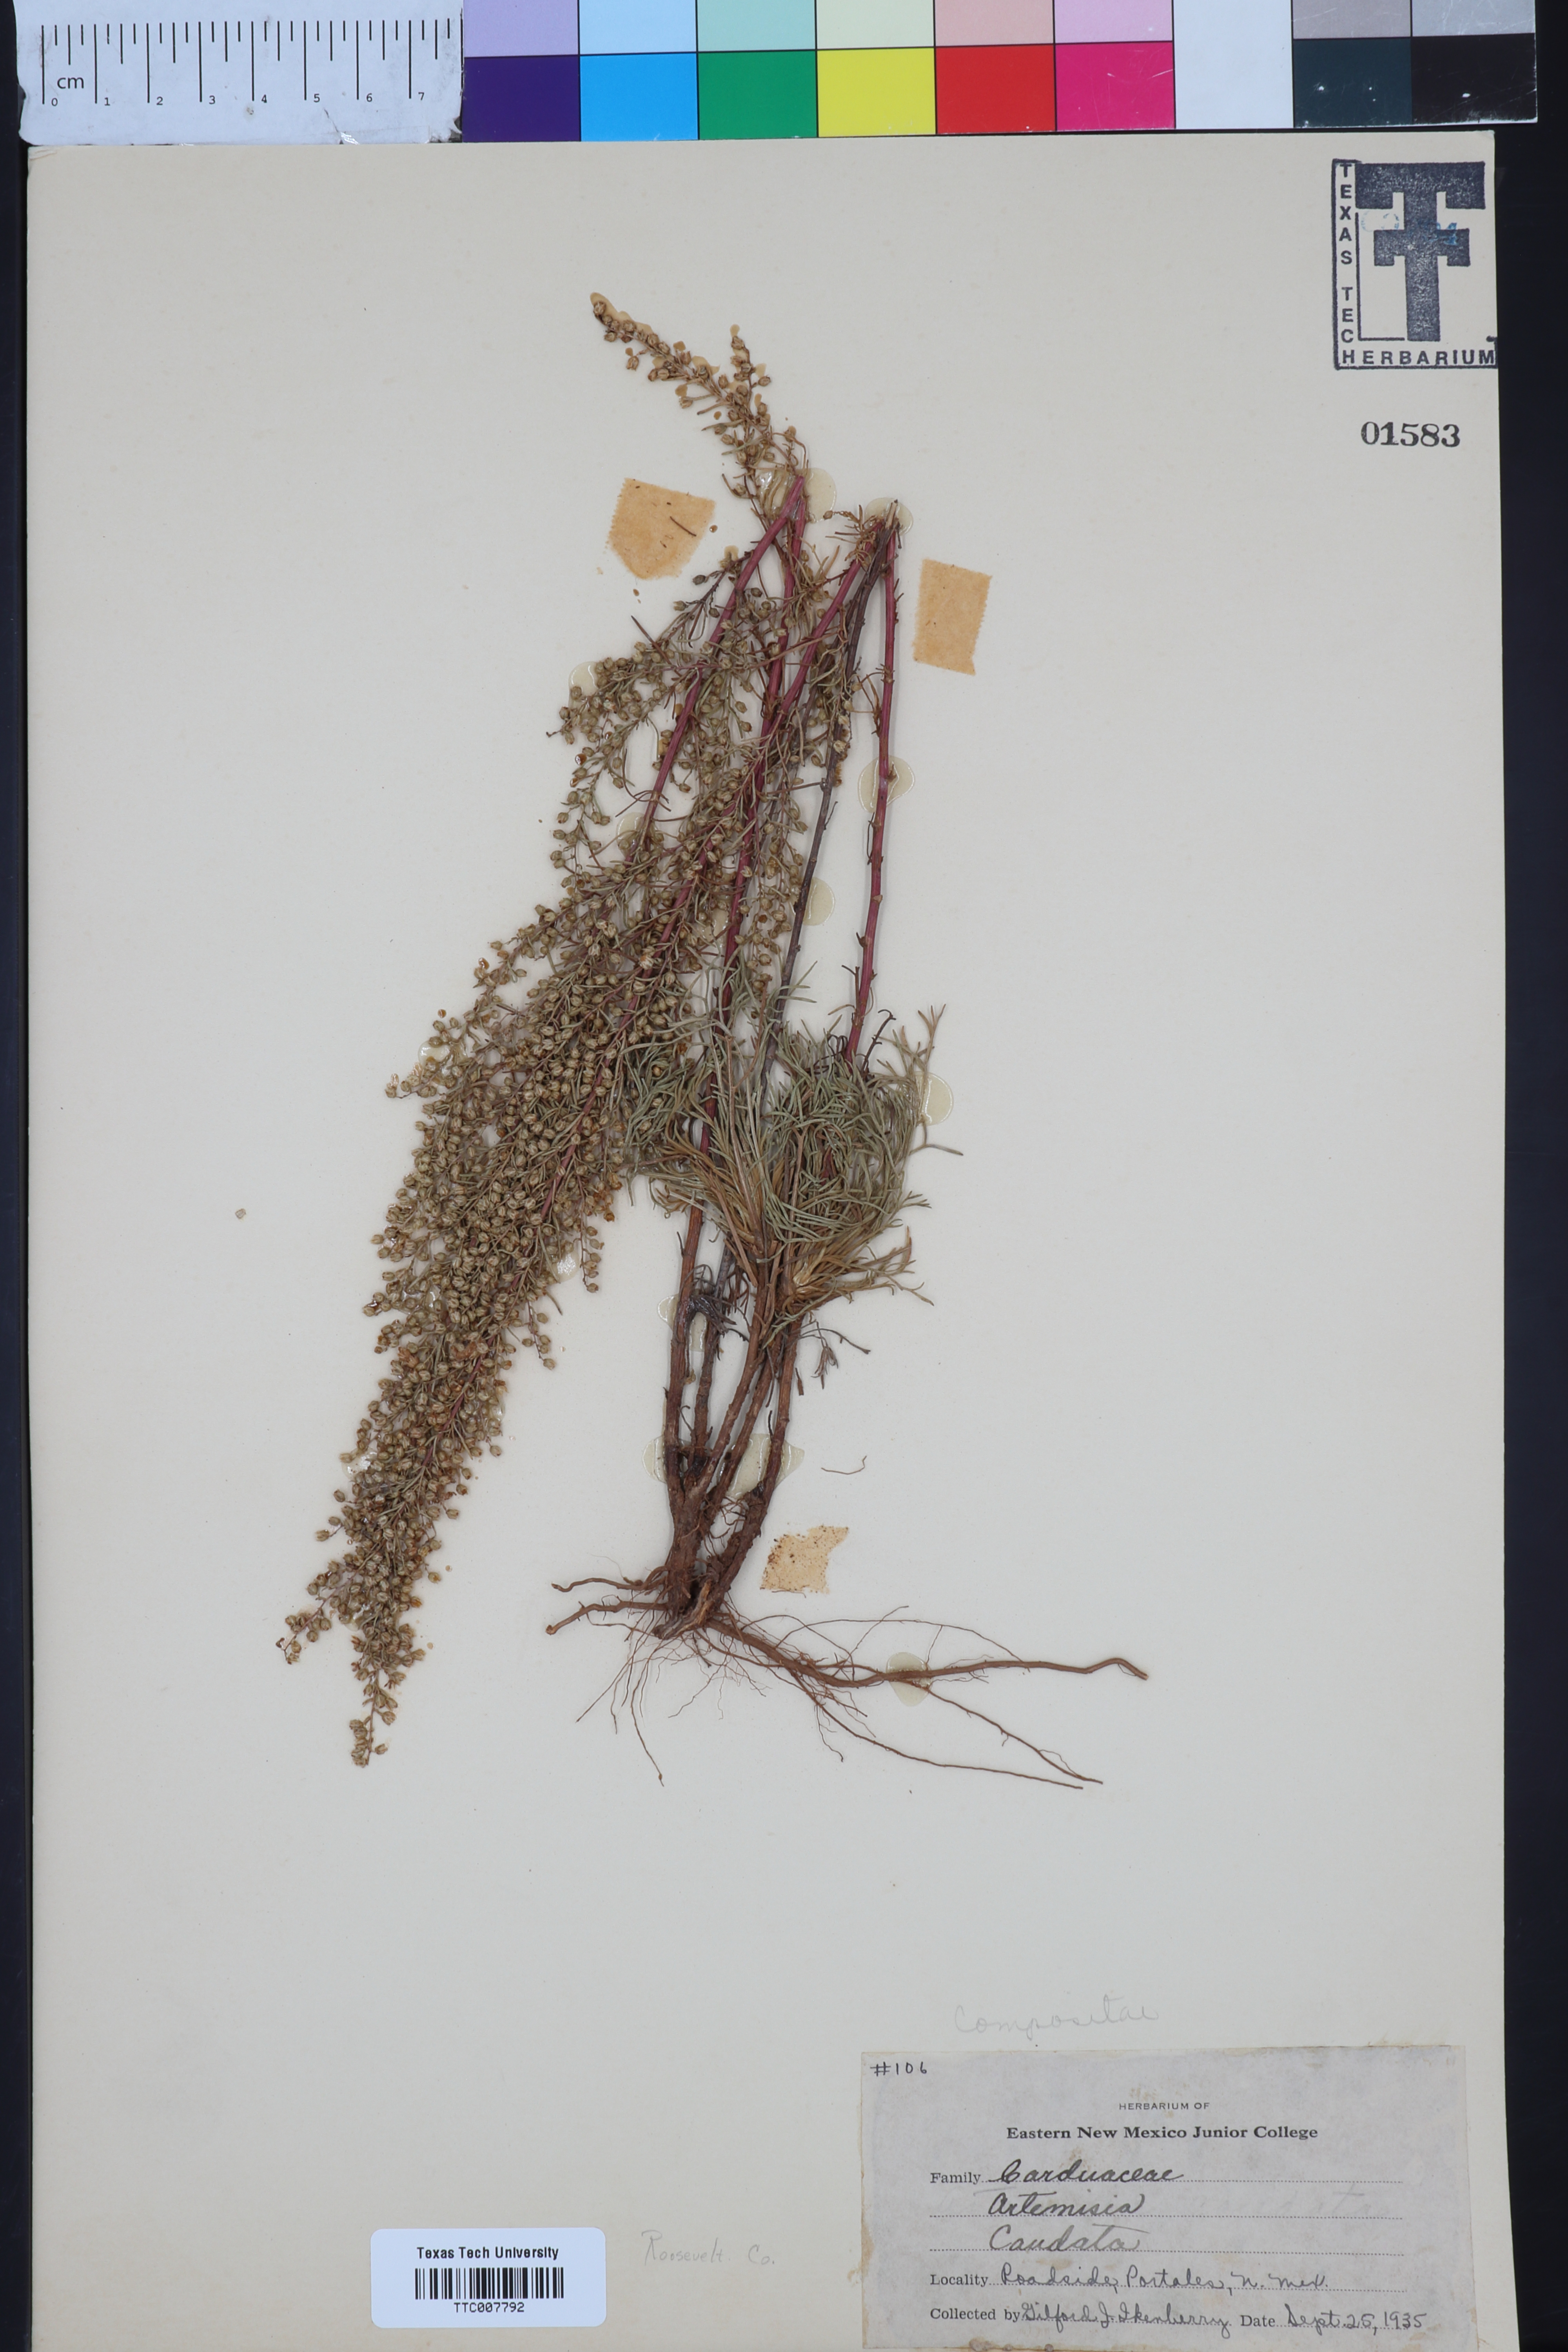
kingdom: Plantae
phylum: Tracheophyta
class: Magnoliopsida
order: Asterales
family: Asteraceae
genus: Artemisia
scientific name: Artemisia campestris
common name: Field wormwood
